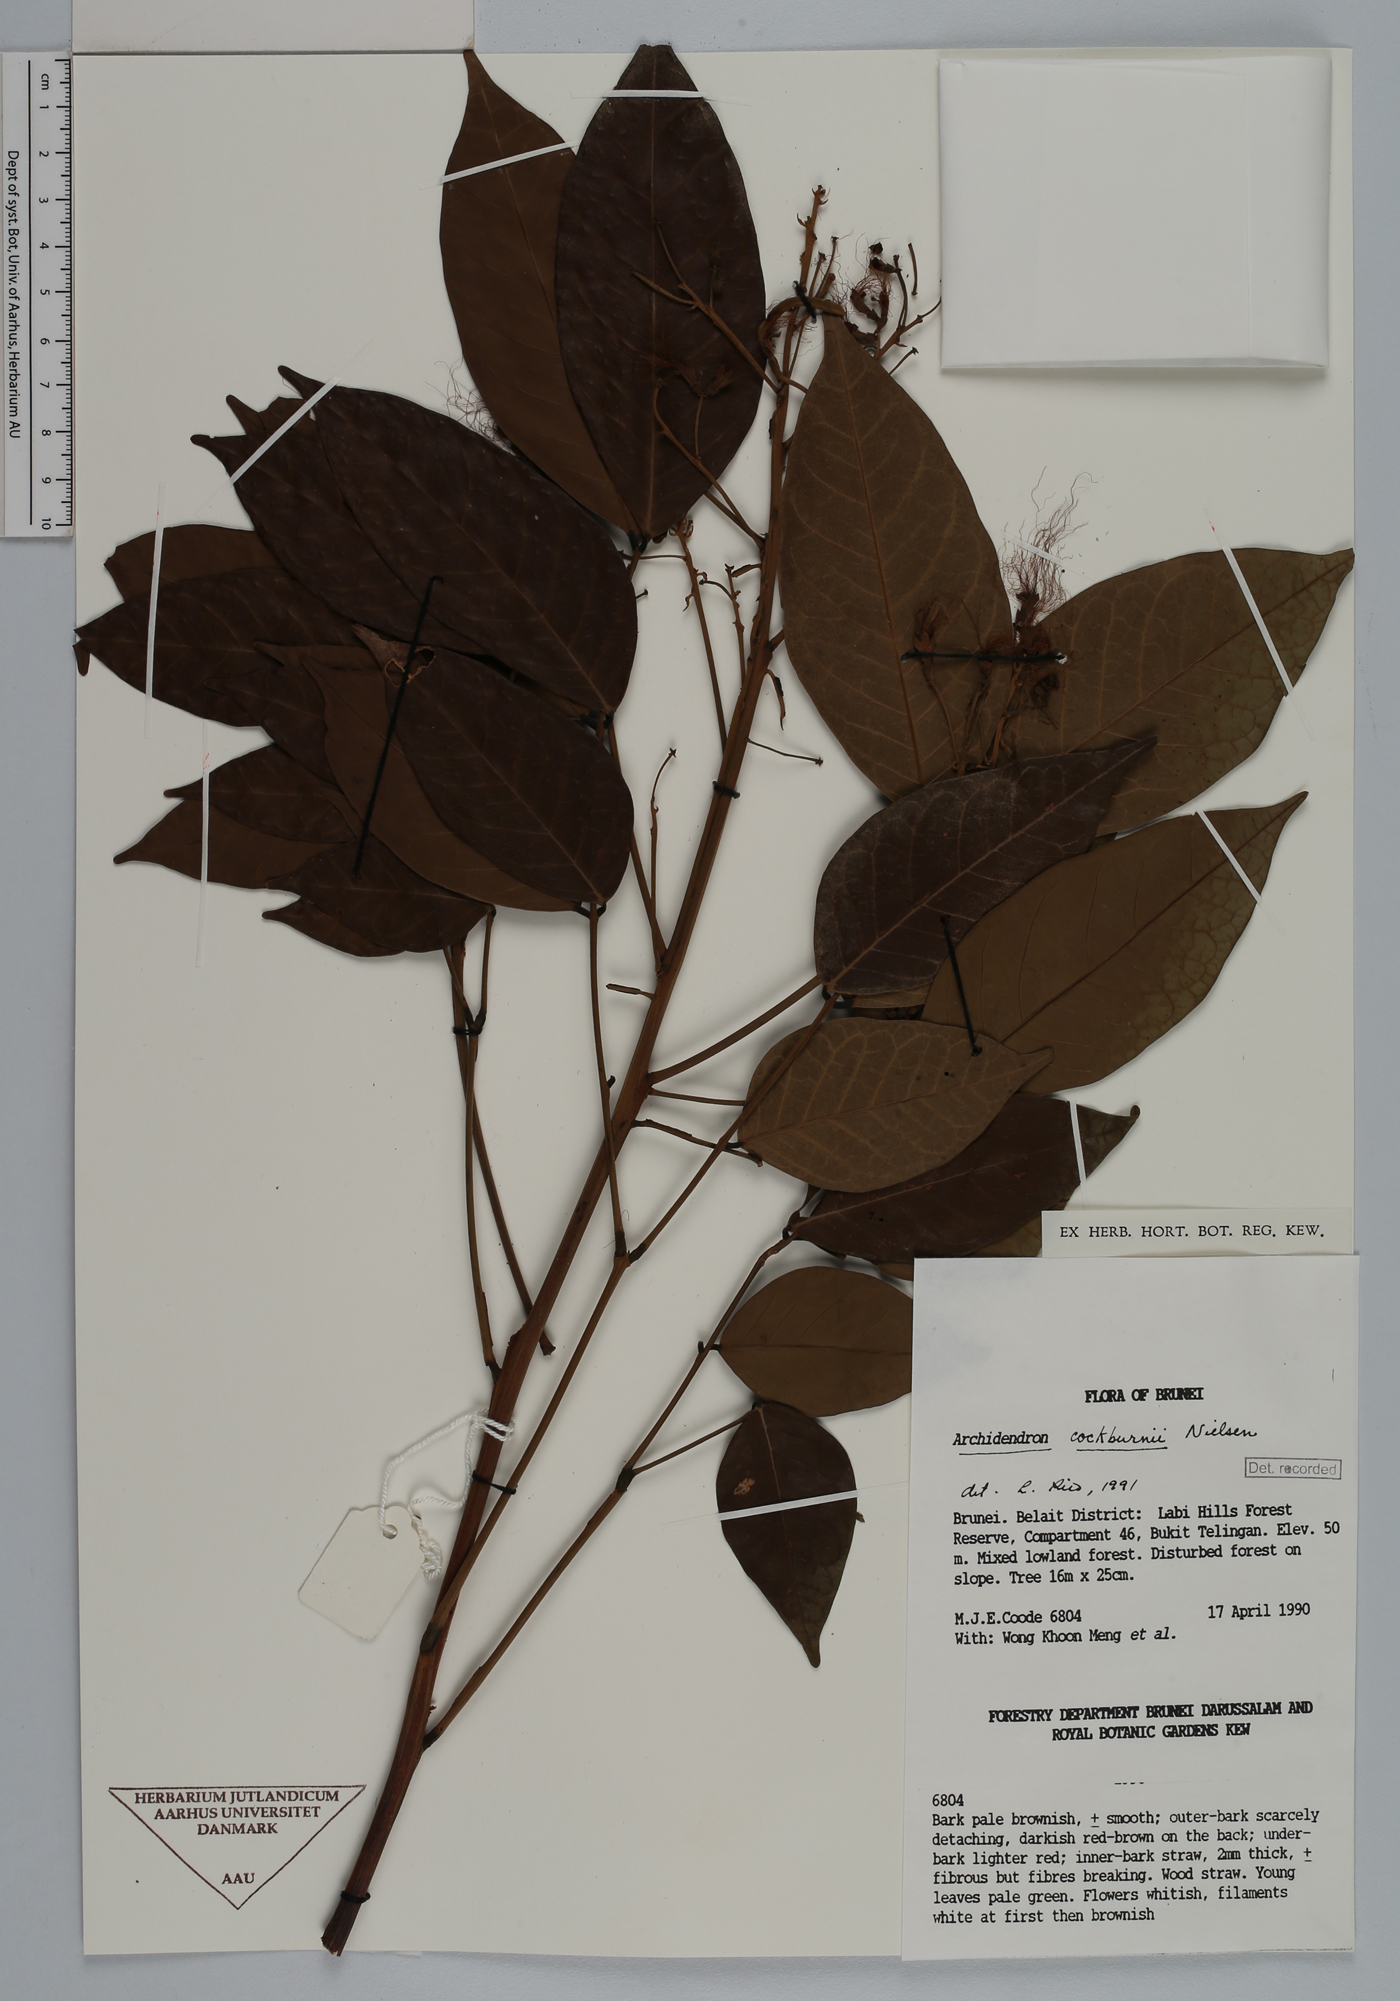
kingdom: Plantae
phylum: Tracheophyta
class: Magnoliopsida
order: Fabales
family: Fabaceae
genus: Archidendron
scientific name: Archidendron cockburnii
